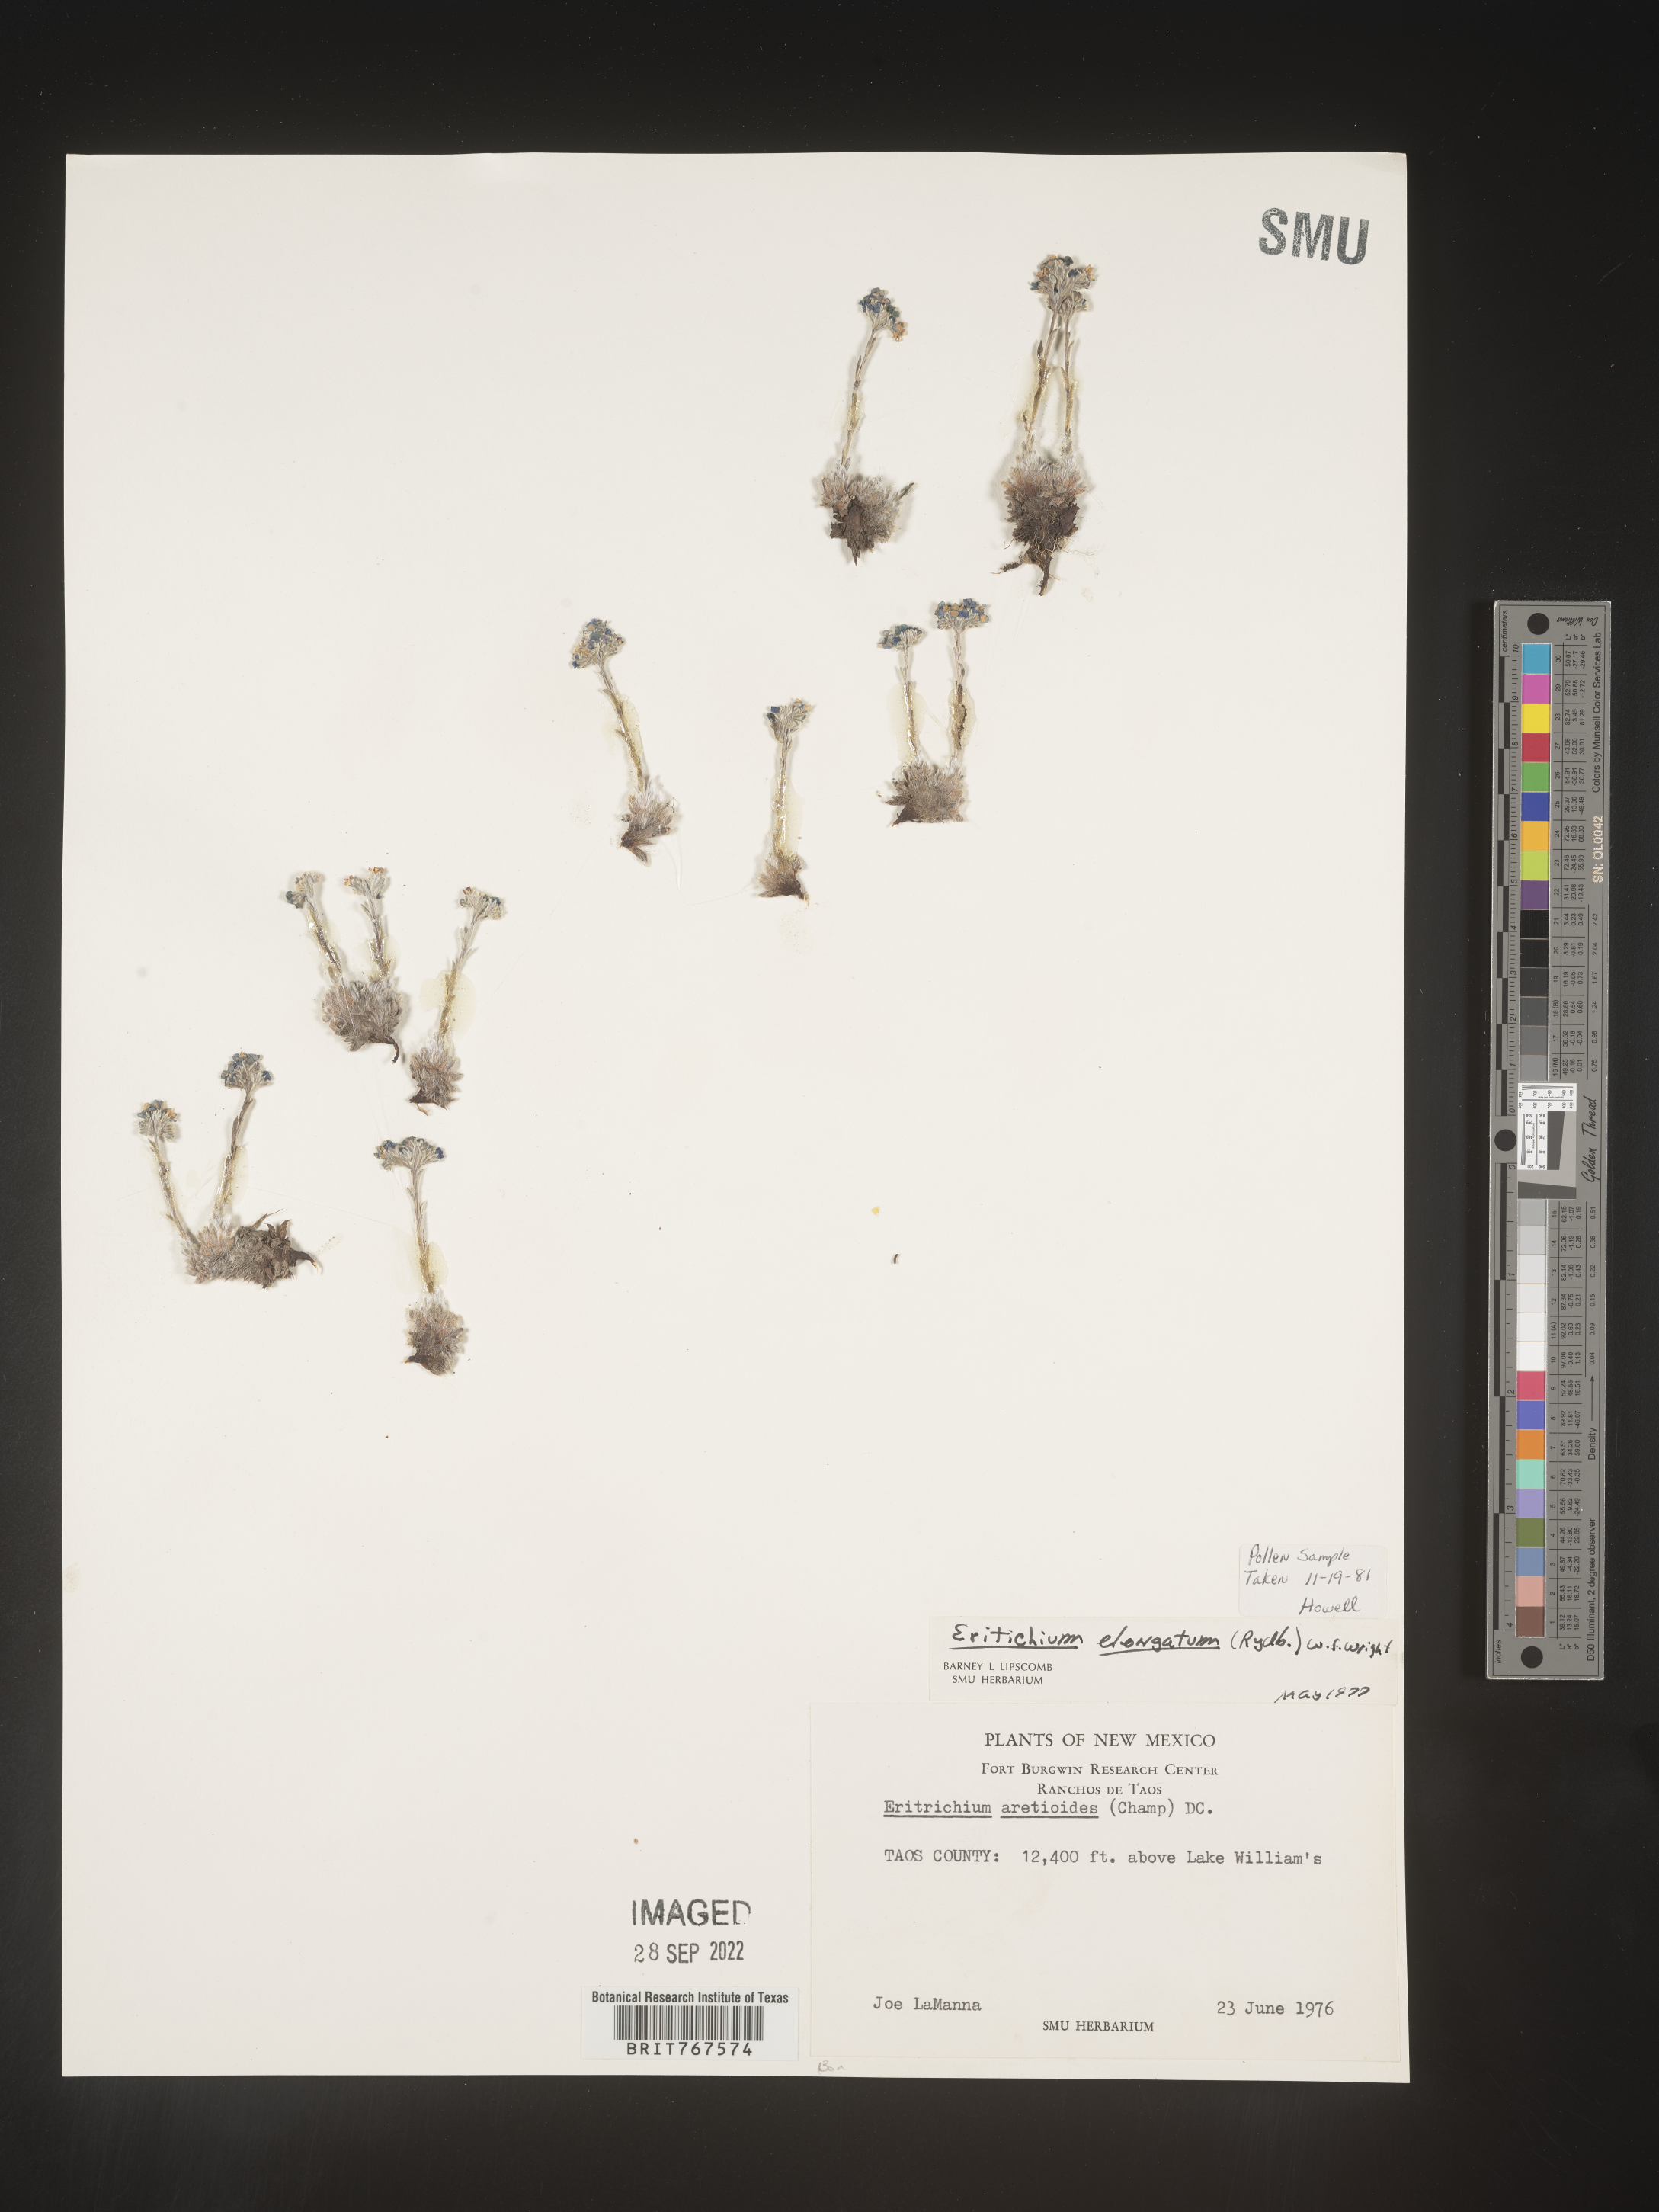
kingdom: Plantae
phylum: Tracheophyta
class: Magnoliopsida
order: Boraginales
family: Boraginaceae
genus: Eritrichium
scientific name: Eritrichium
